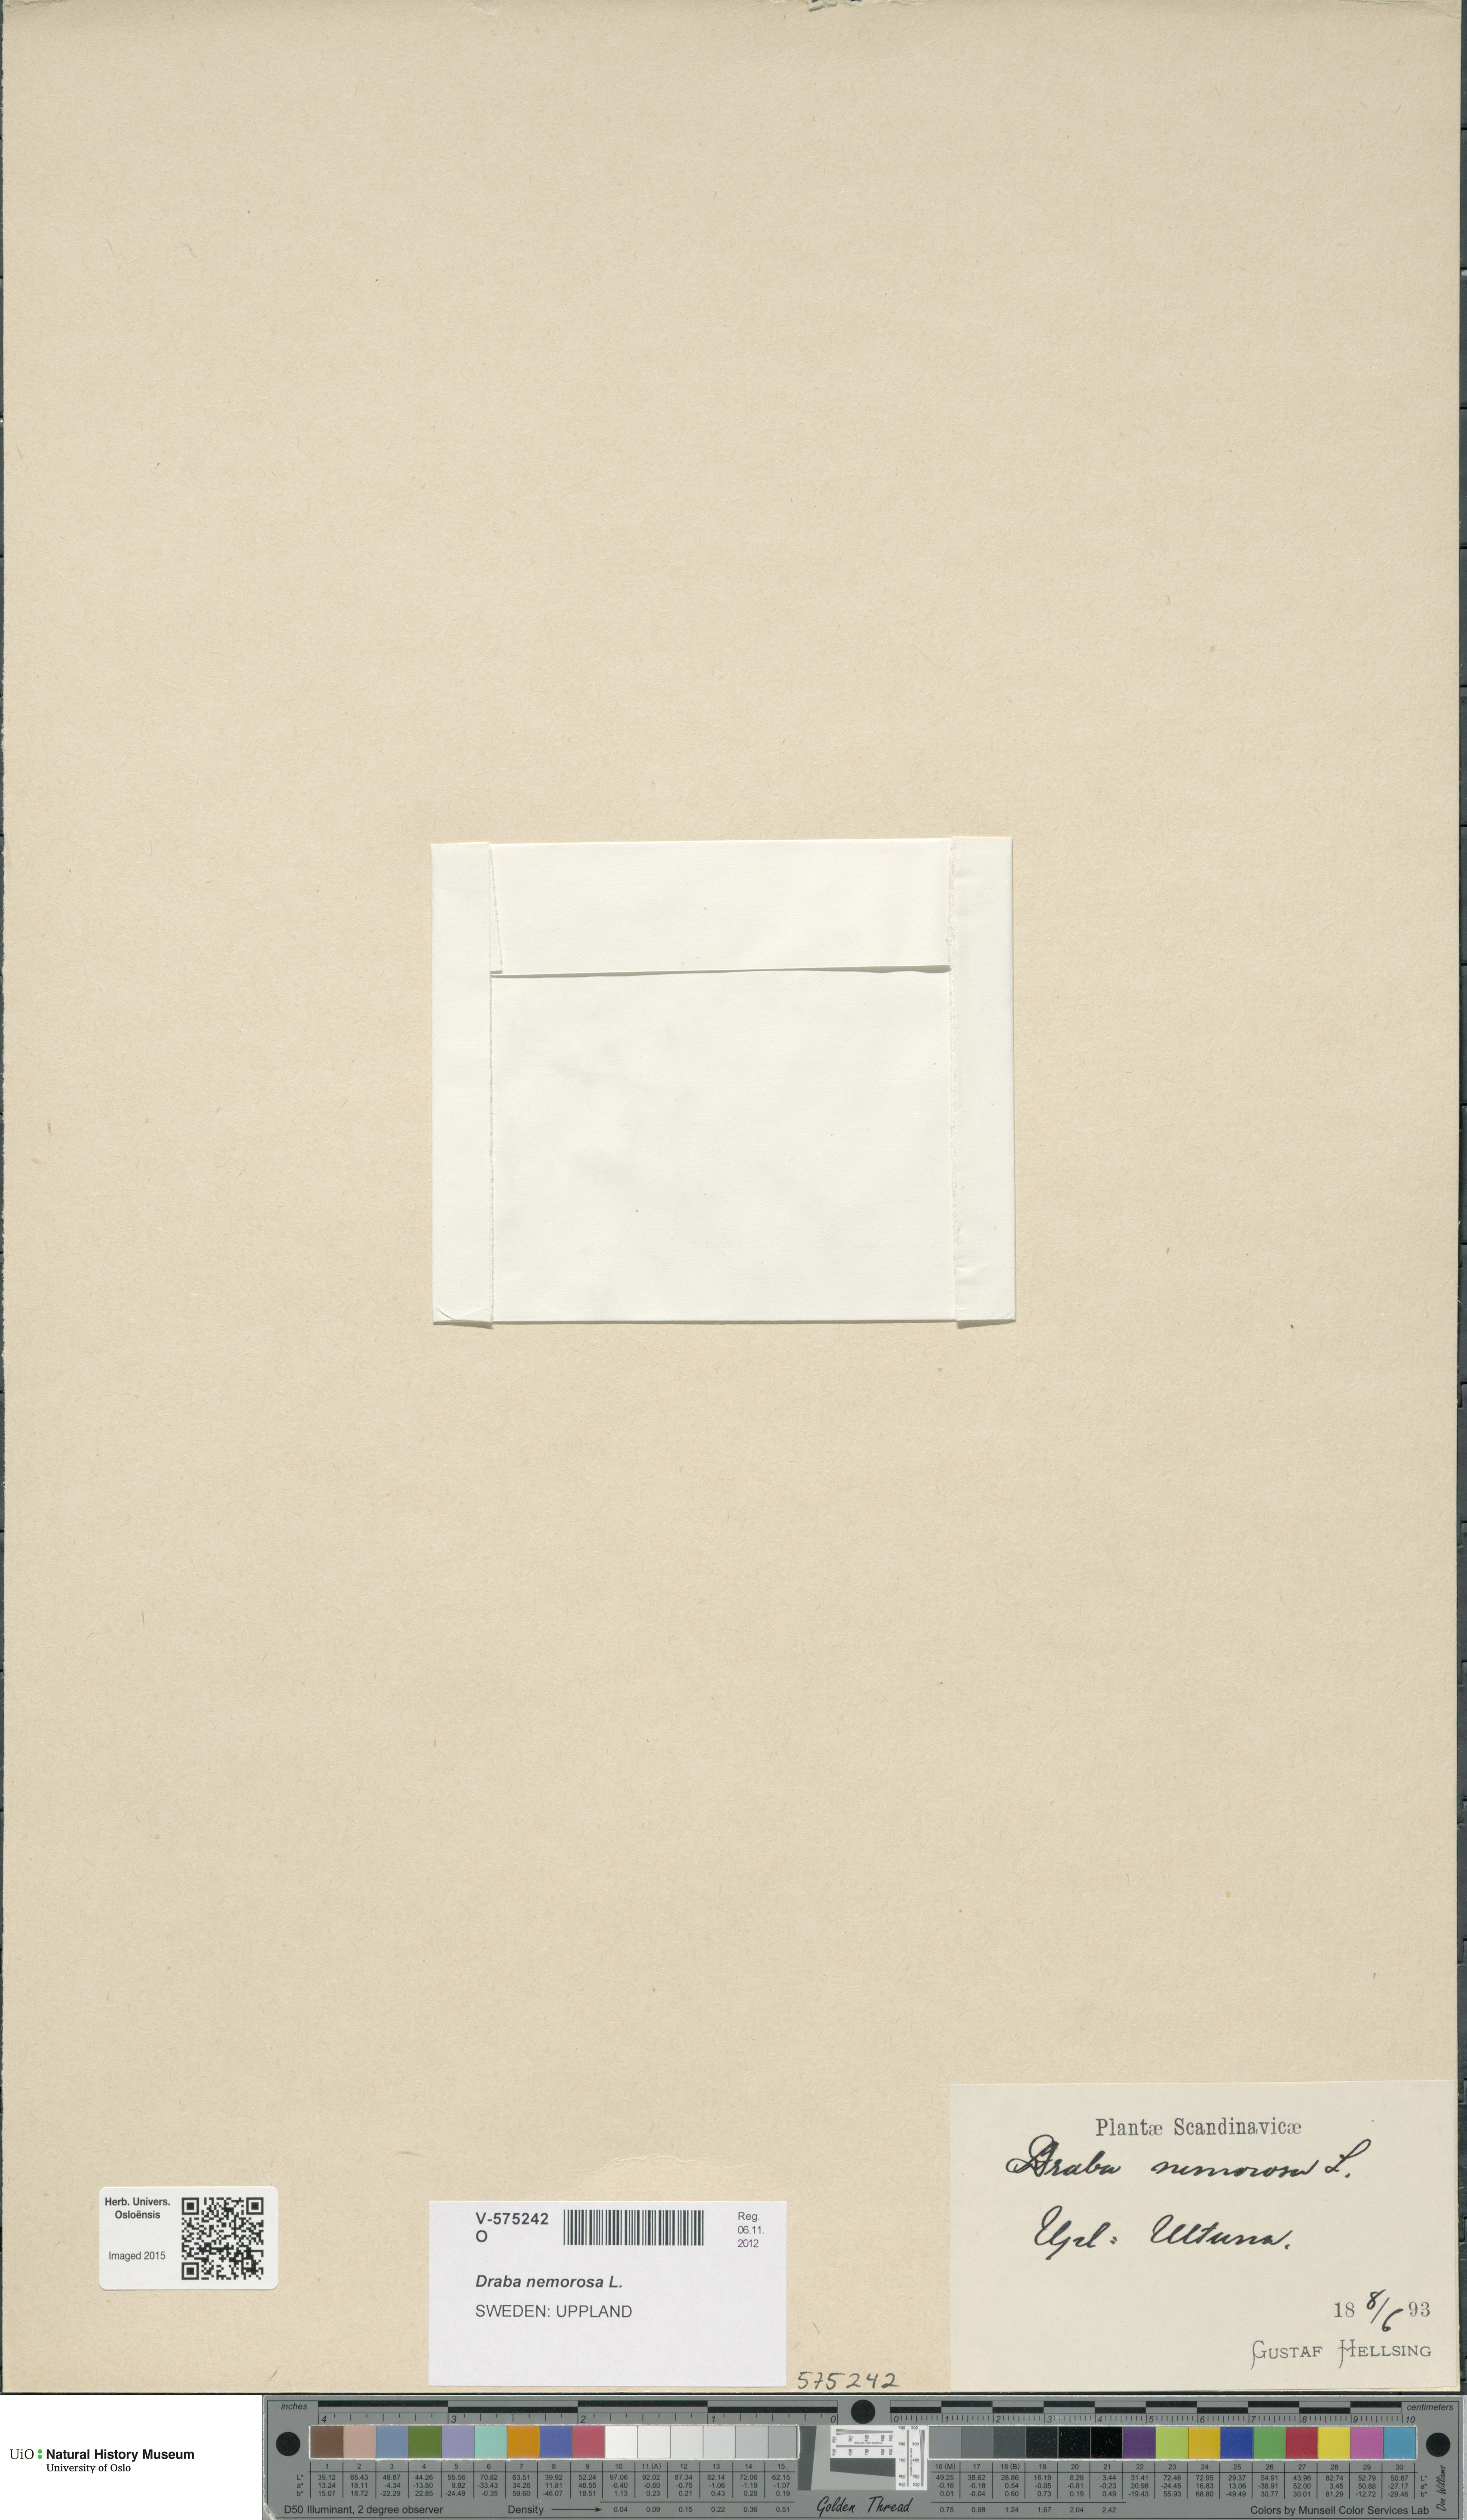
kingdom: Plantae
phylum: Tracheophyta
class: Magnoliopsida
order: Brassicales
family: Brassicaceae
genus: Draba
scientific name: Draba nemorosa
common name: Wood whitlow-grass
